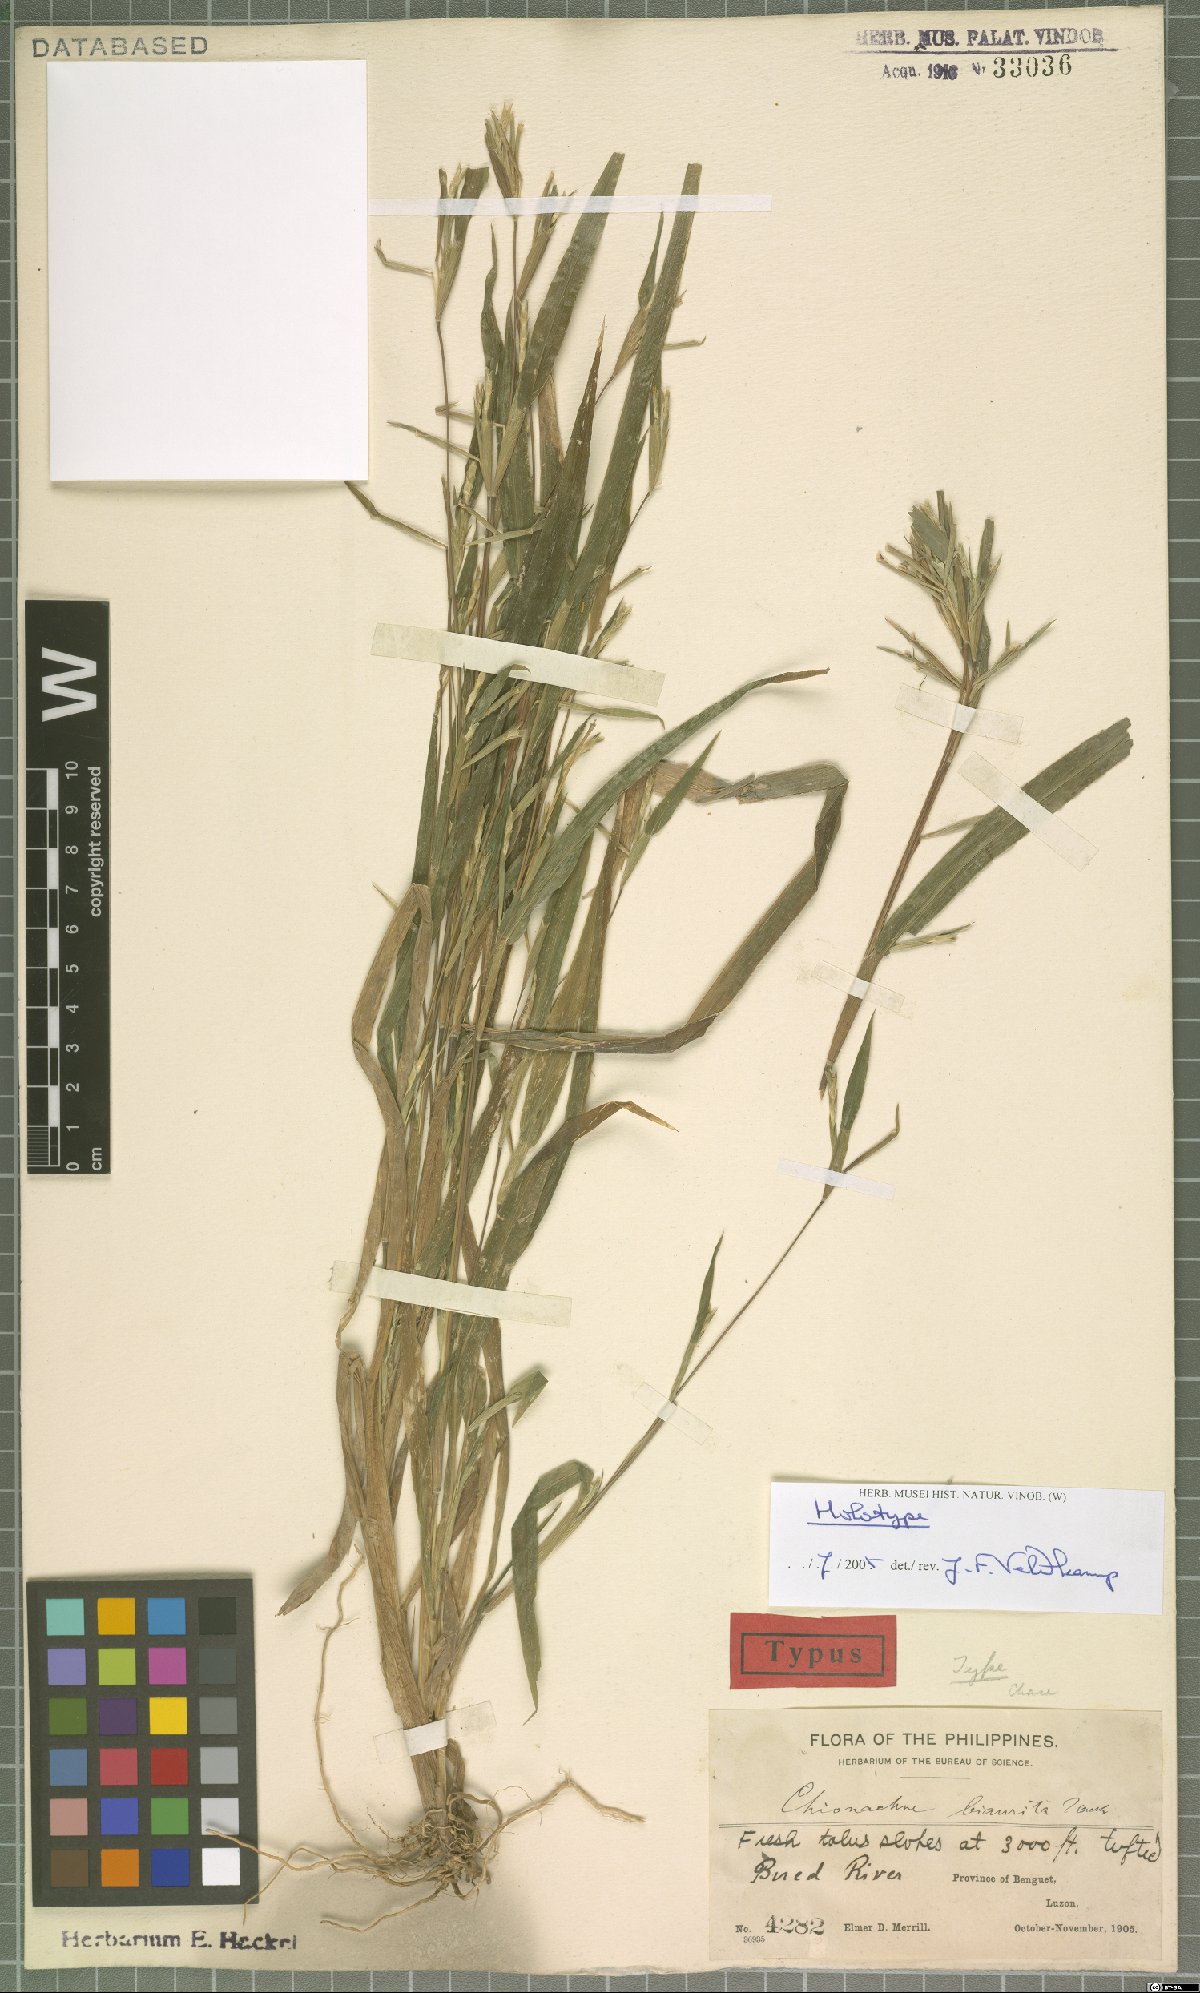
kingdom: Plantae
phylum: Tracheophyta
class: Liliopsida
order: Poales
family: Poaceae
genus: Polytoca
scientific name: Polytoca biaurita
